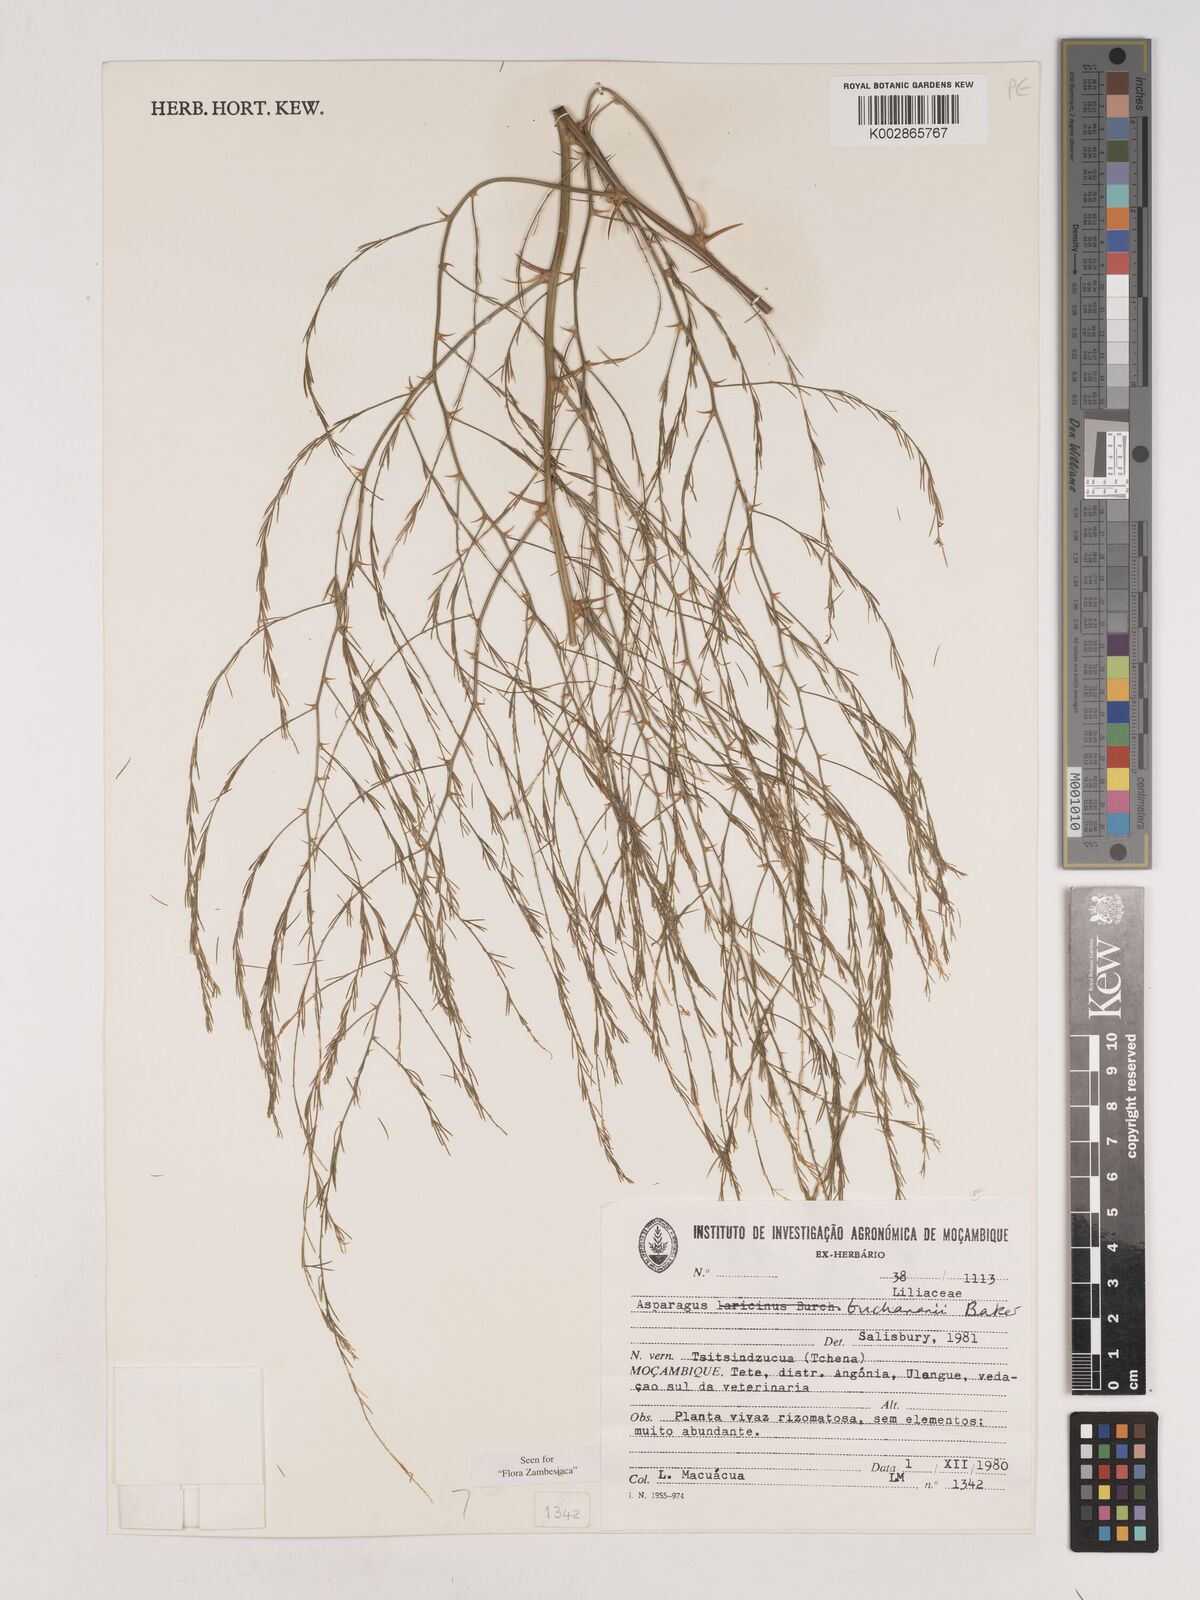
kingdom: Plantae
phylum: Tracheophyta
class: Liliopsida
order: Asparagales
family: Asparagaceae
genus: Asparagus
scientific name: Asparagus buchananii
